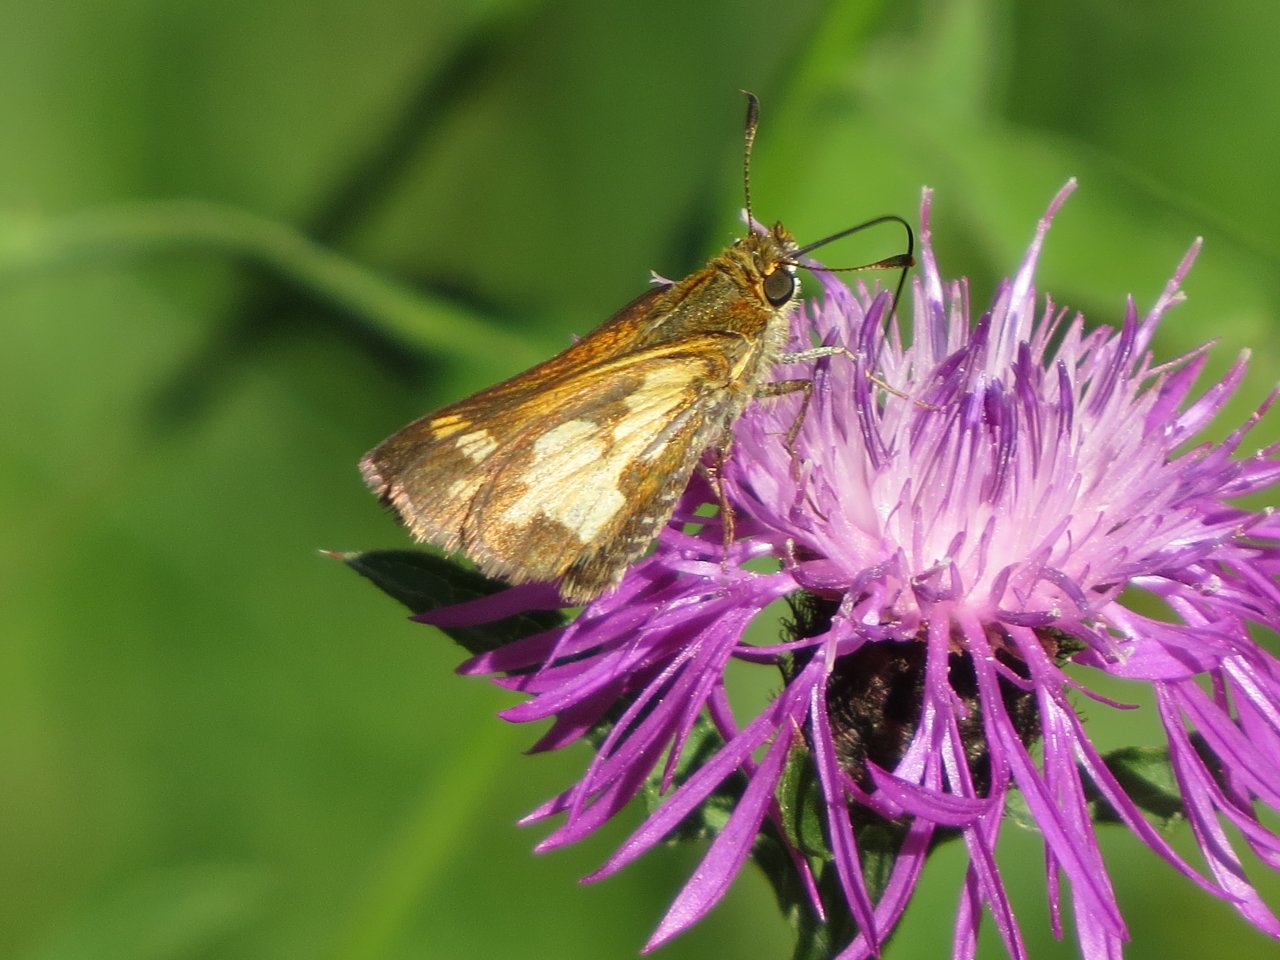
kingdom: Animalia
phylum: Arthropoda
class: Insecta
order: Lepidoptera
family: Hesperiidae
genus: Polites
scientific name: Polites coras
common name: Peck's Skipper
